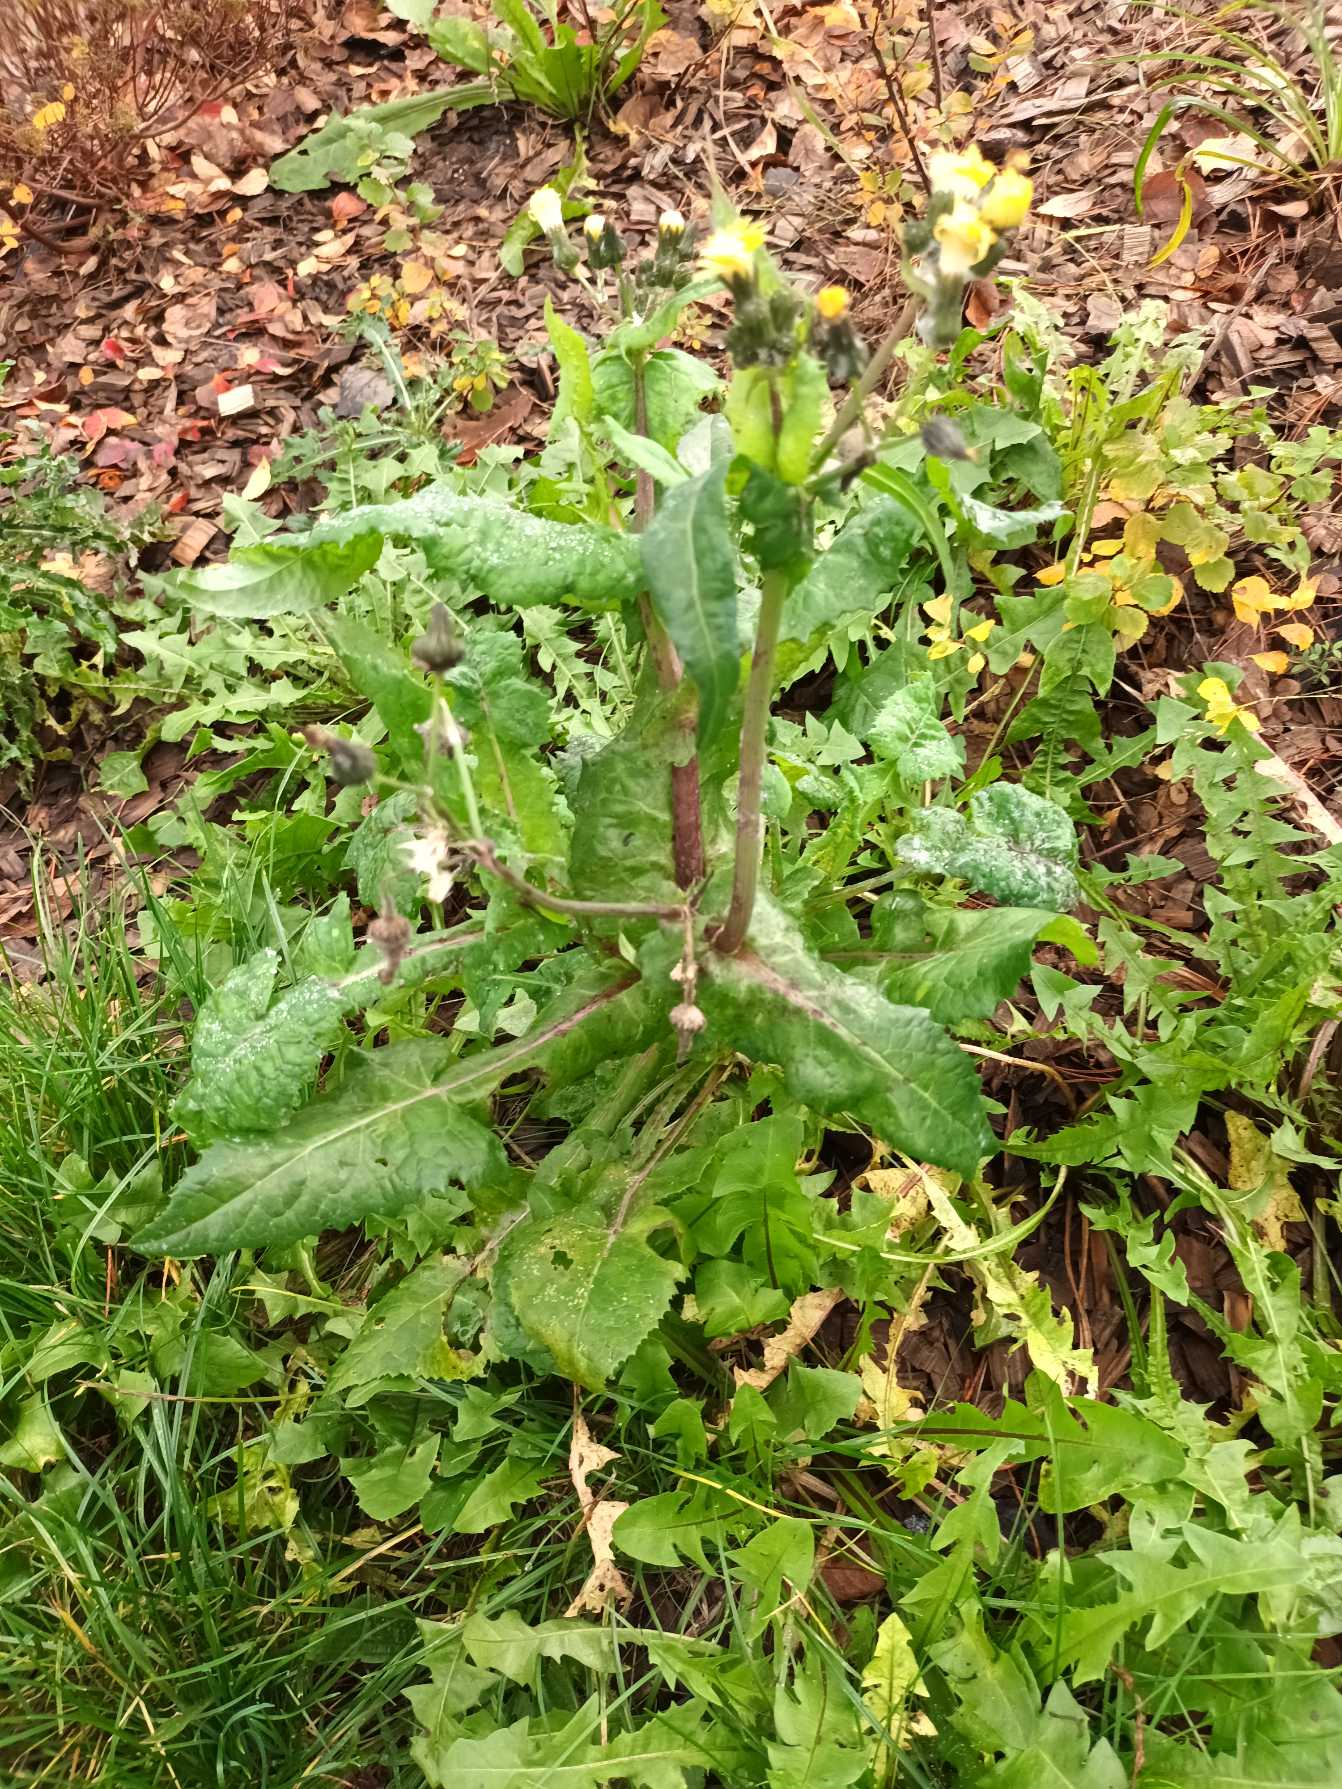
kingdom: Plantae
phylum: Tracheophyta
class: Magnoliopsida
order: Asterales
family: Asteraceae
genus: Sonchus
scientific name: Sonchus asper
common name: Ru svinemælk
